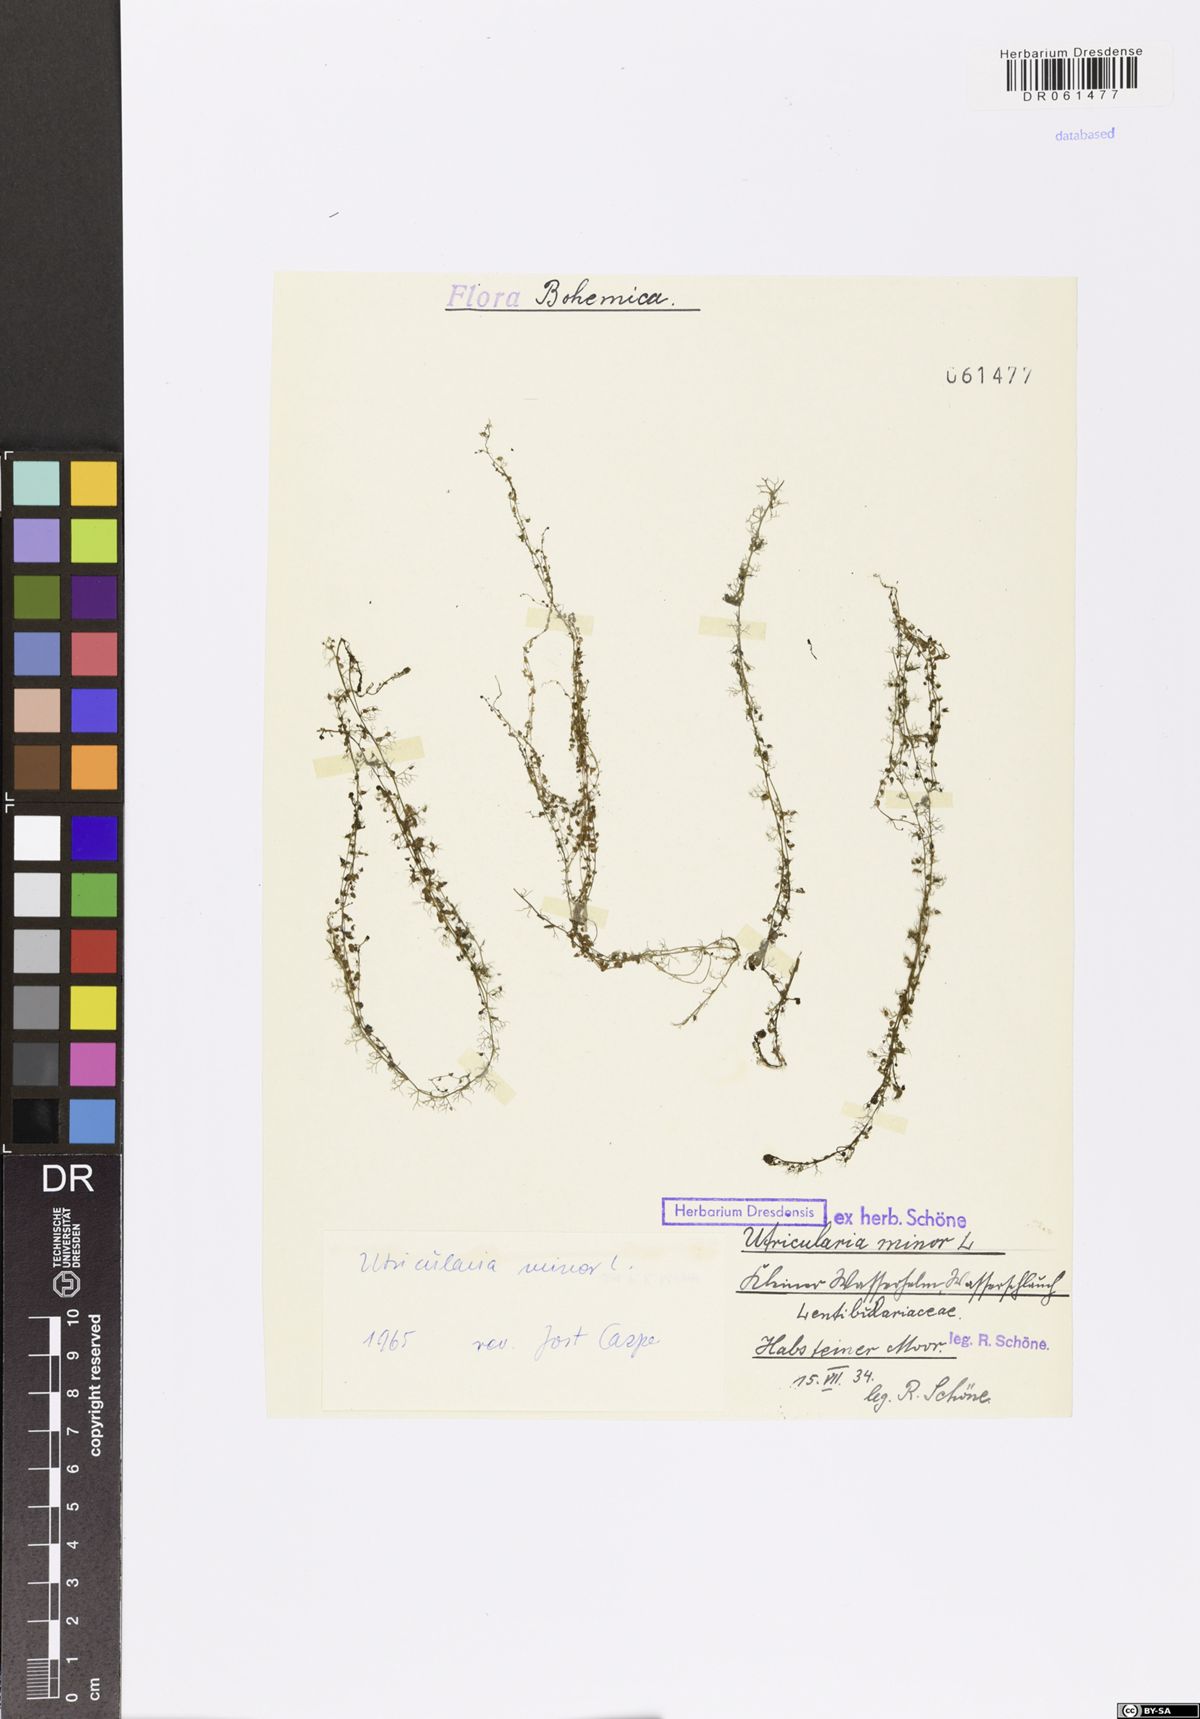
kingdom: Plantae
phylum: Tracheophyta
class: Magnoliopsida
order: Lamiales
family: Lentibulariaceae
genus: Utricularia
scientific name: Utricularia minor
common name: Lesser bladderwort
